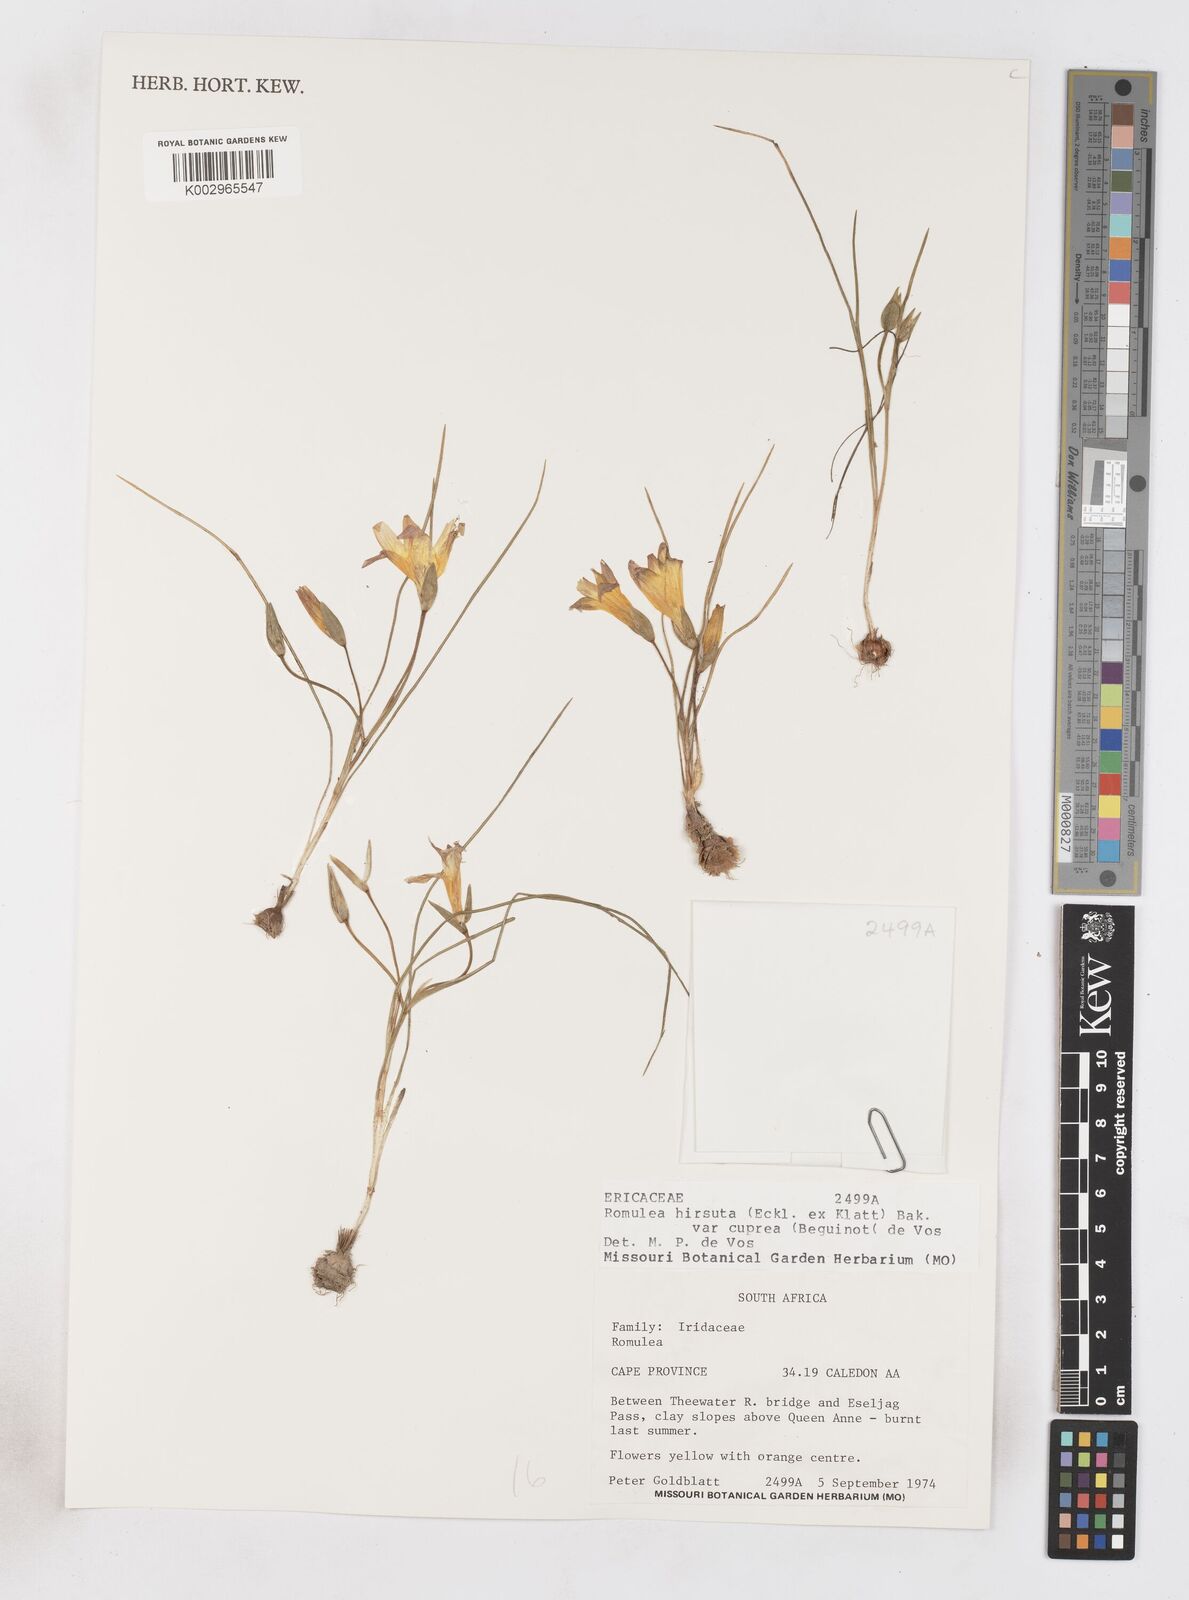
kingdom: Plantae
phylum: Tracheophyta
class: Liliopsida
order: Asparagales
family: Iridaceae
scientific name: Iridaceae
